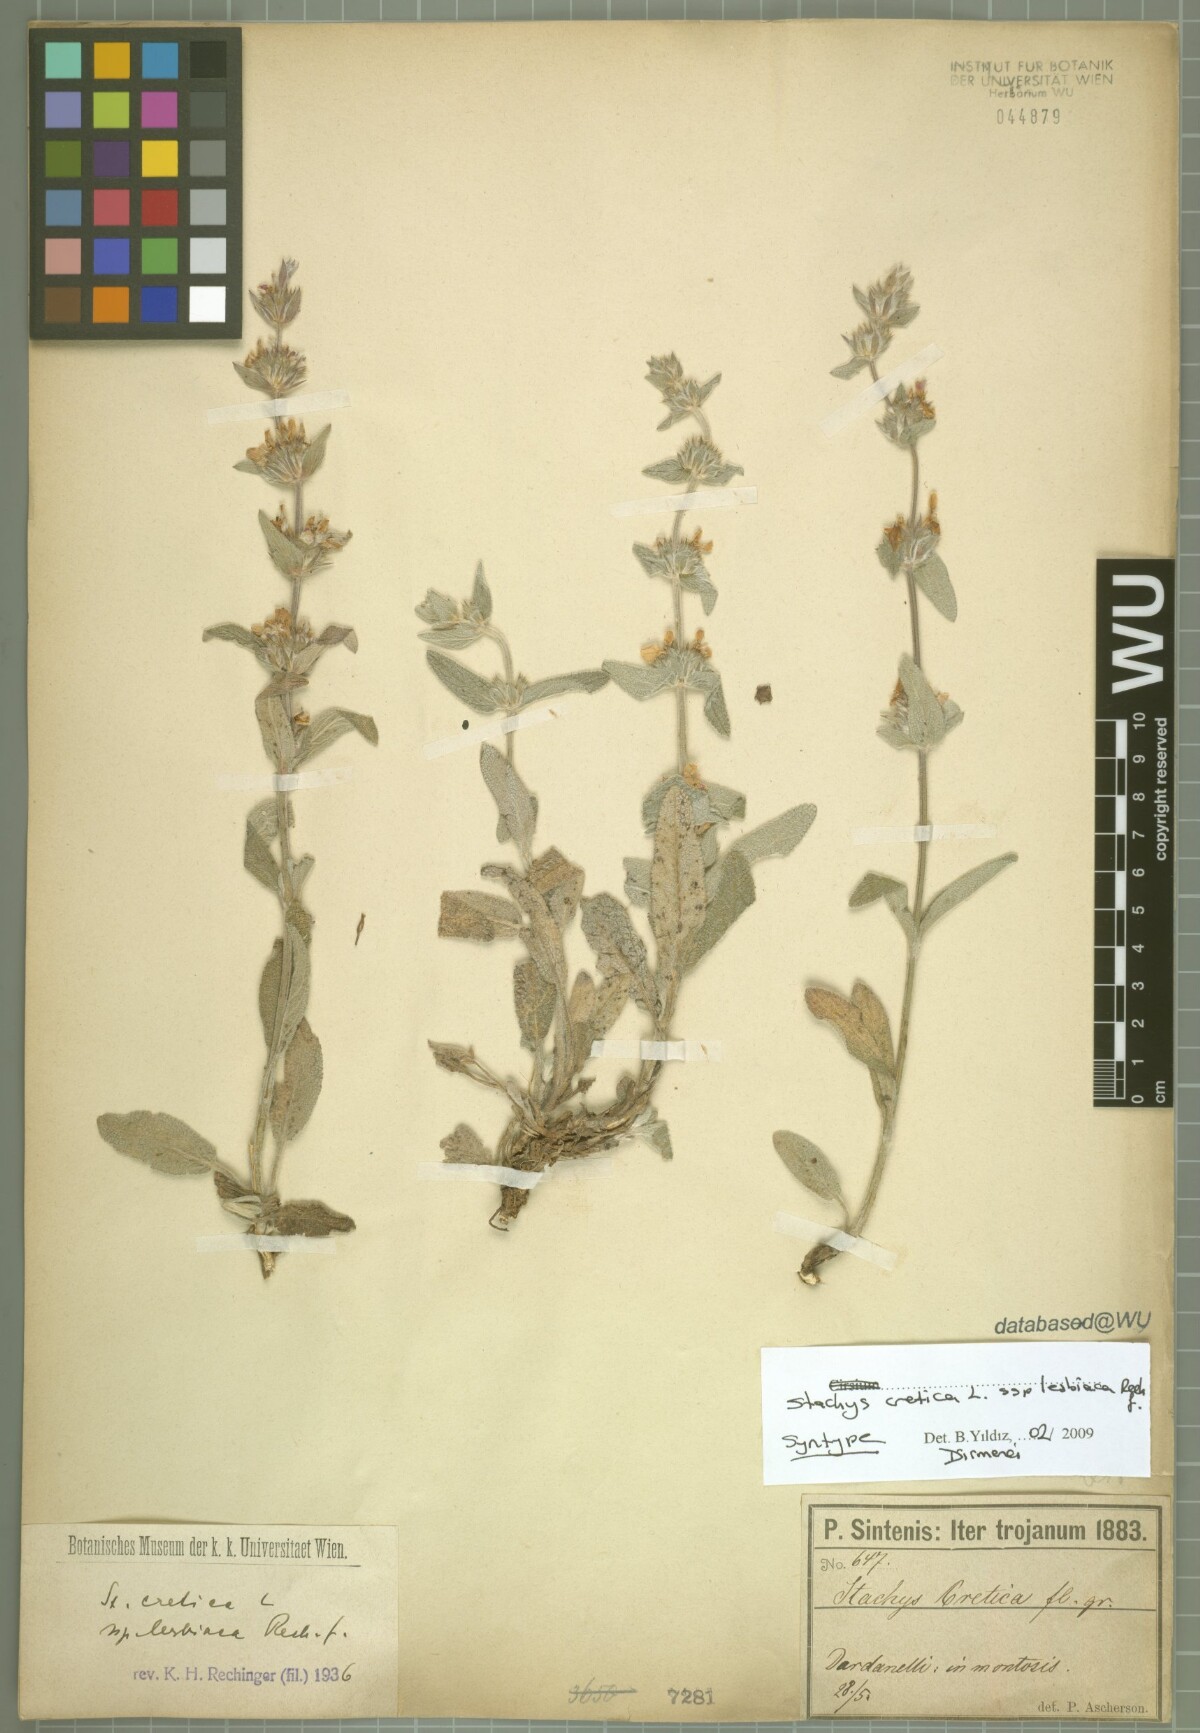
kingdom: Plantae
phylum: Tracheophyta
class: Magnoliopsida
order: Lamiales
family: Lamiaceae
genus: Stachys
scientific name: Stachys cretica
